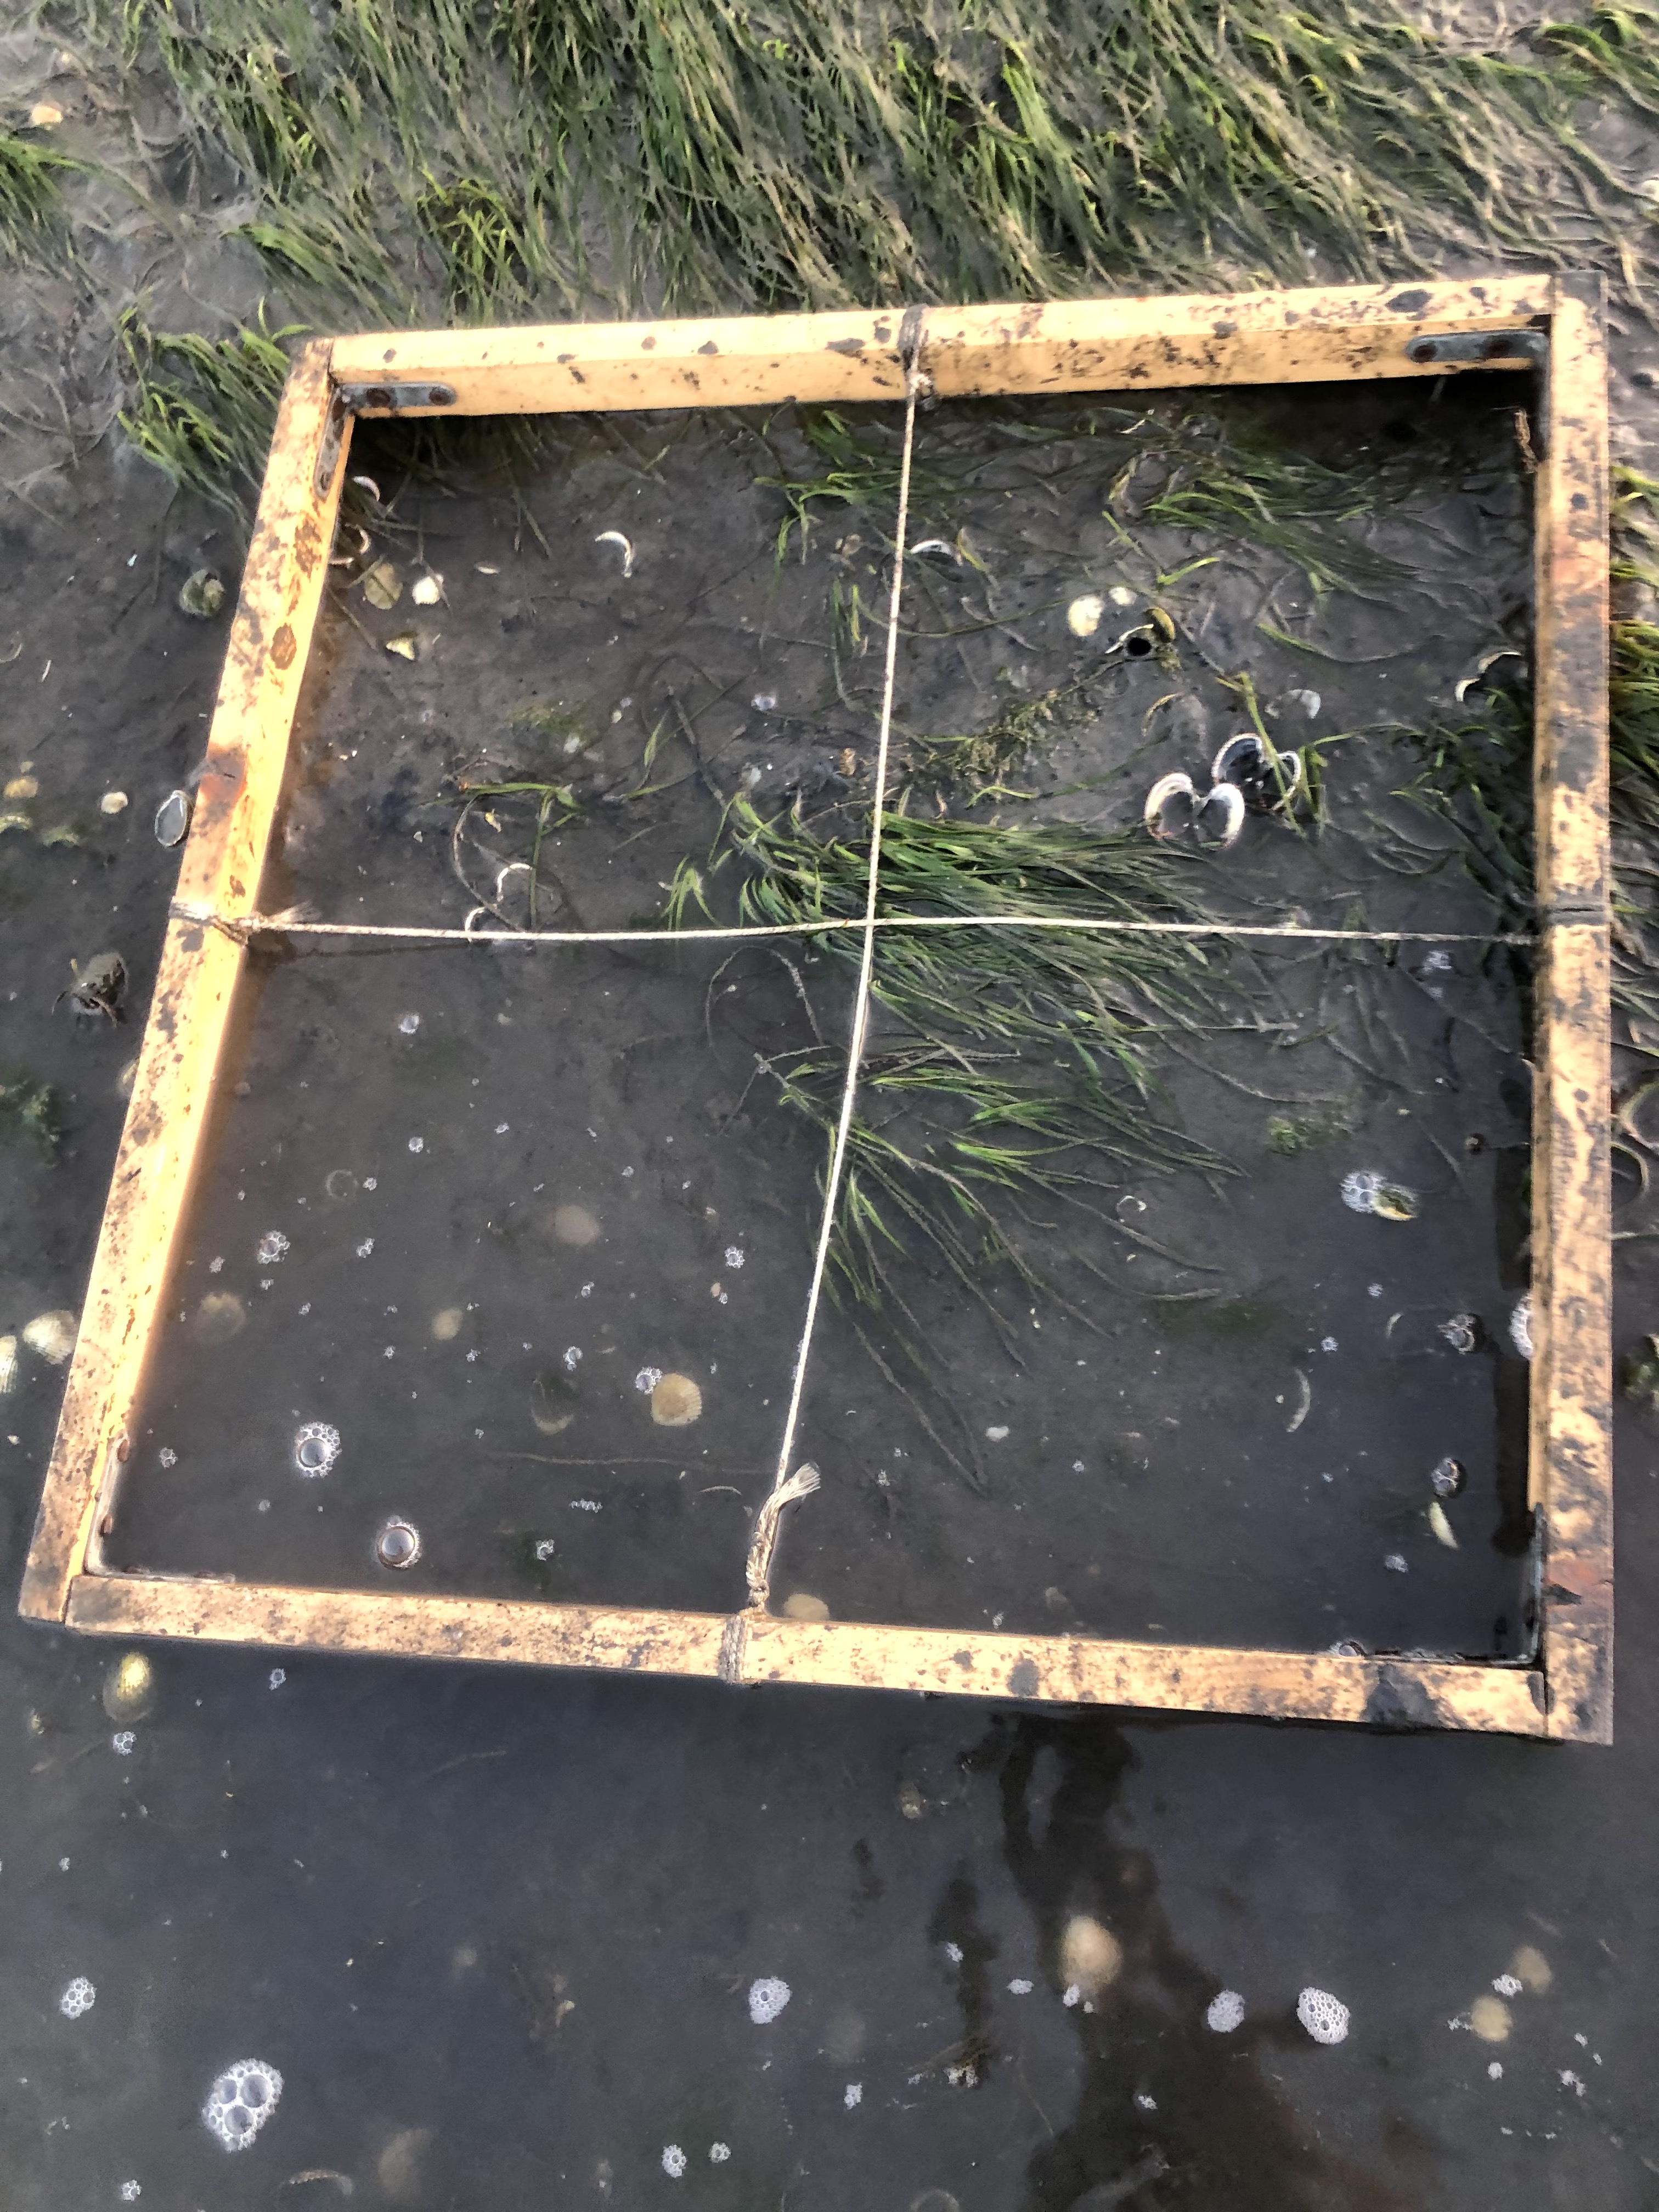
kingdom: Plantae
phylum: Tracheophyta
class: Liliopsida
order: Alismatales
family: Zosteraceae
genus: Zostera
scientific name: Zostera noltii
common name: Dwarf eelgrass
